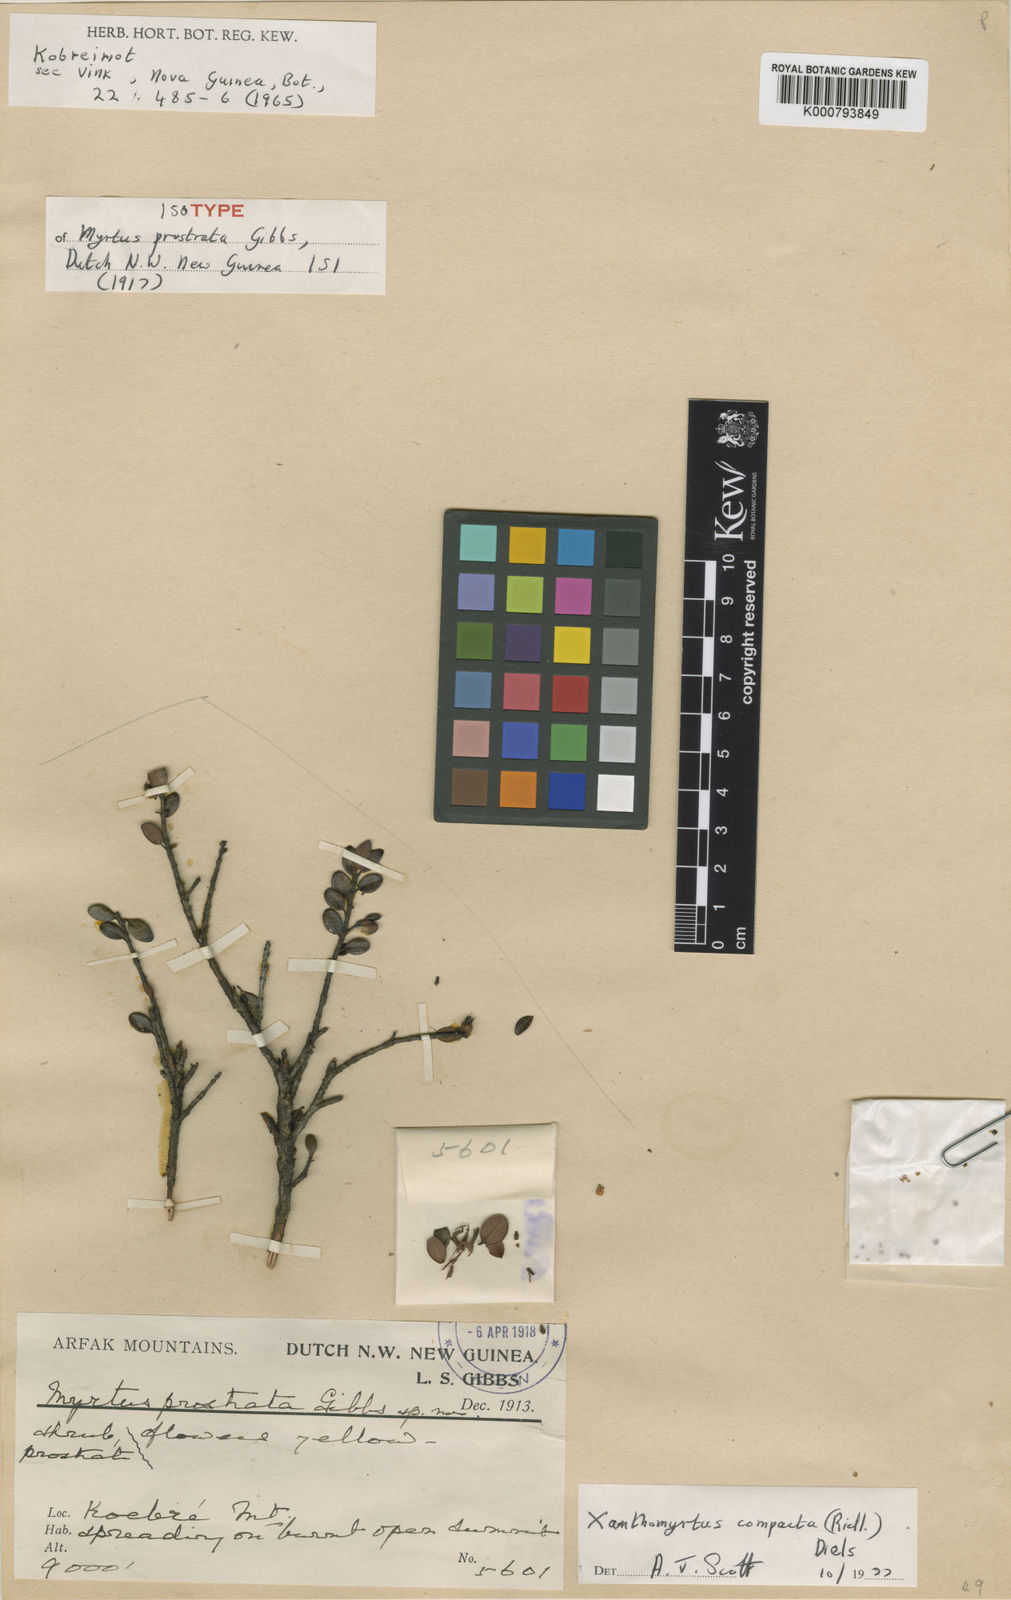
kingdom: Plantae
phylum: Tracheophyta
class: Magnoliopsida
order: Myrtales
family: Myrtaceae
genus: Xanthomyrtus
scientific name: Xanthomyrtus compacta
